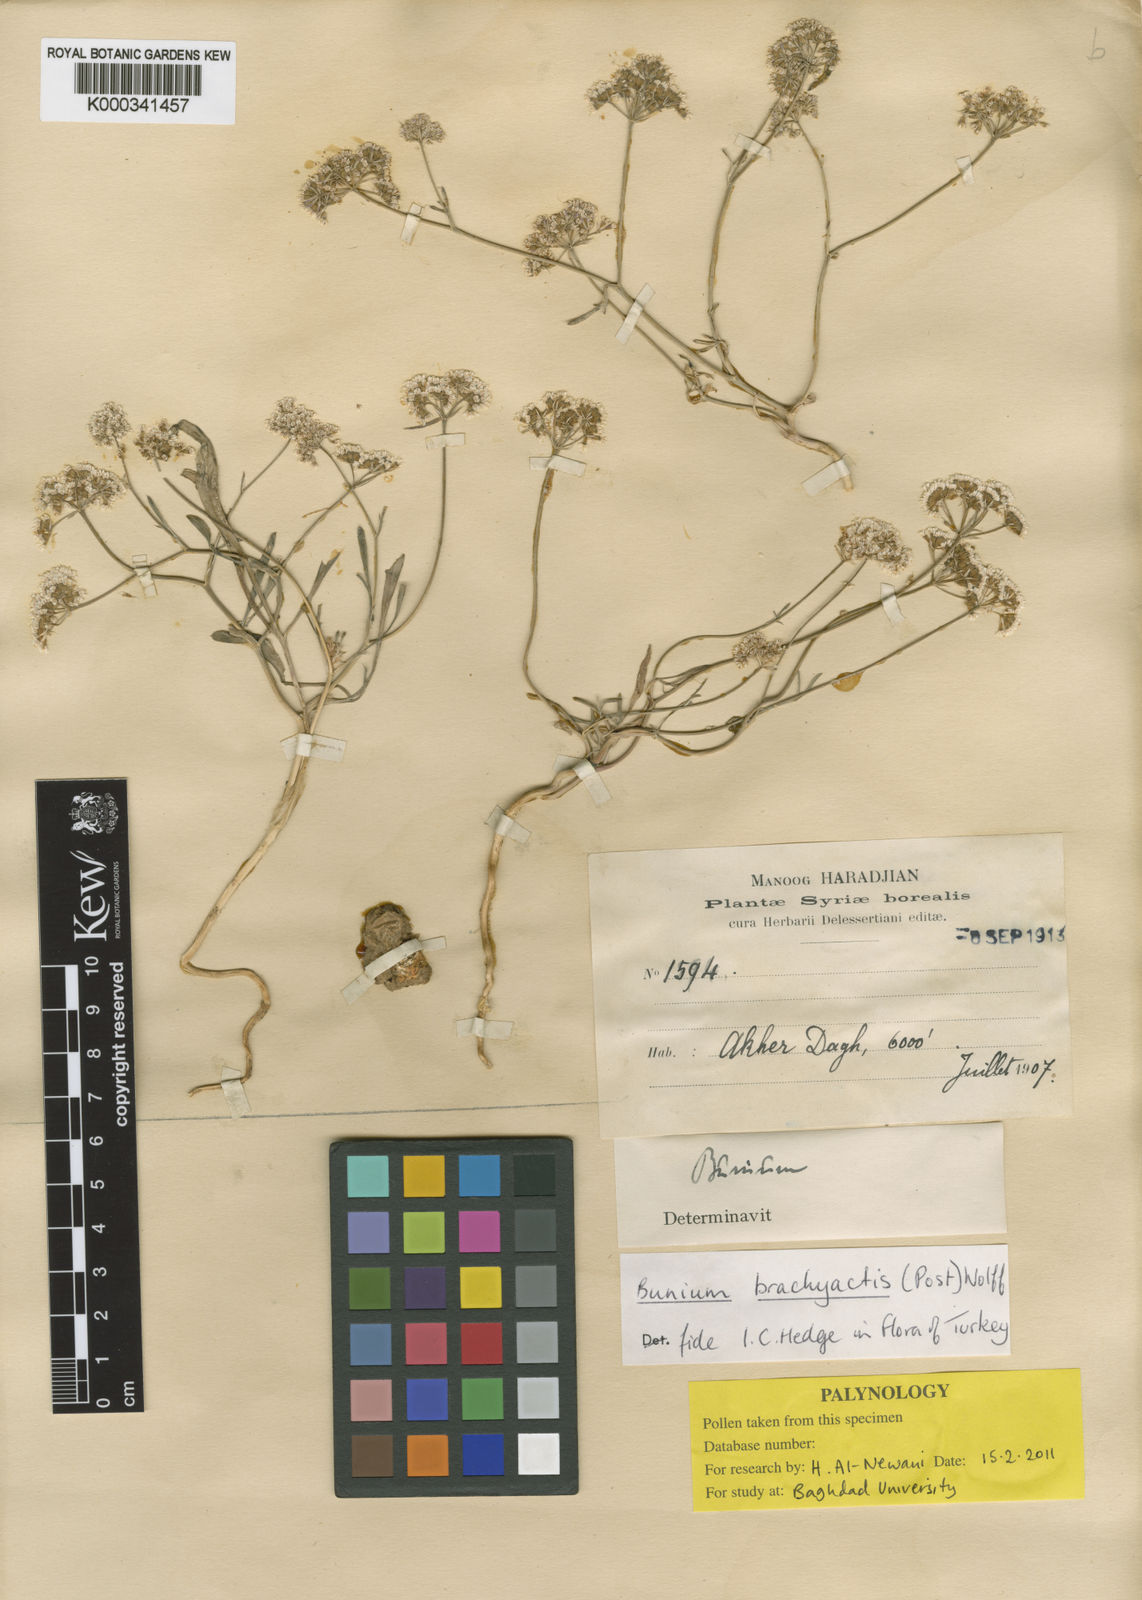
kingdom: Plantae
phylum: Tracheophyta
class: Magnoliopsida
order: Apiales
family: Apiaceae
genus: Bunium
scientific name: Bunium brachyactis
